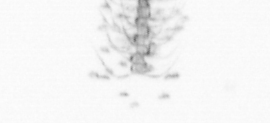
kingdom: Chromista
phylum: Ochrophyta
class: Bacillariophyceae
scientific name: Bacillariophyceae
